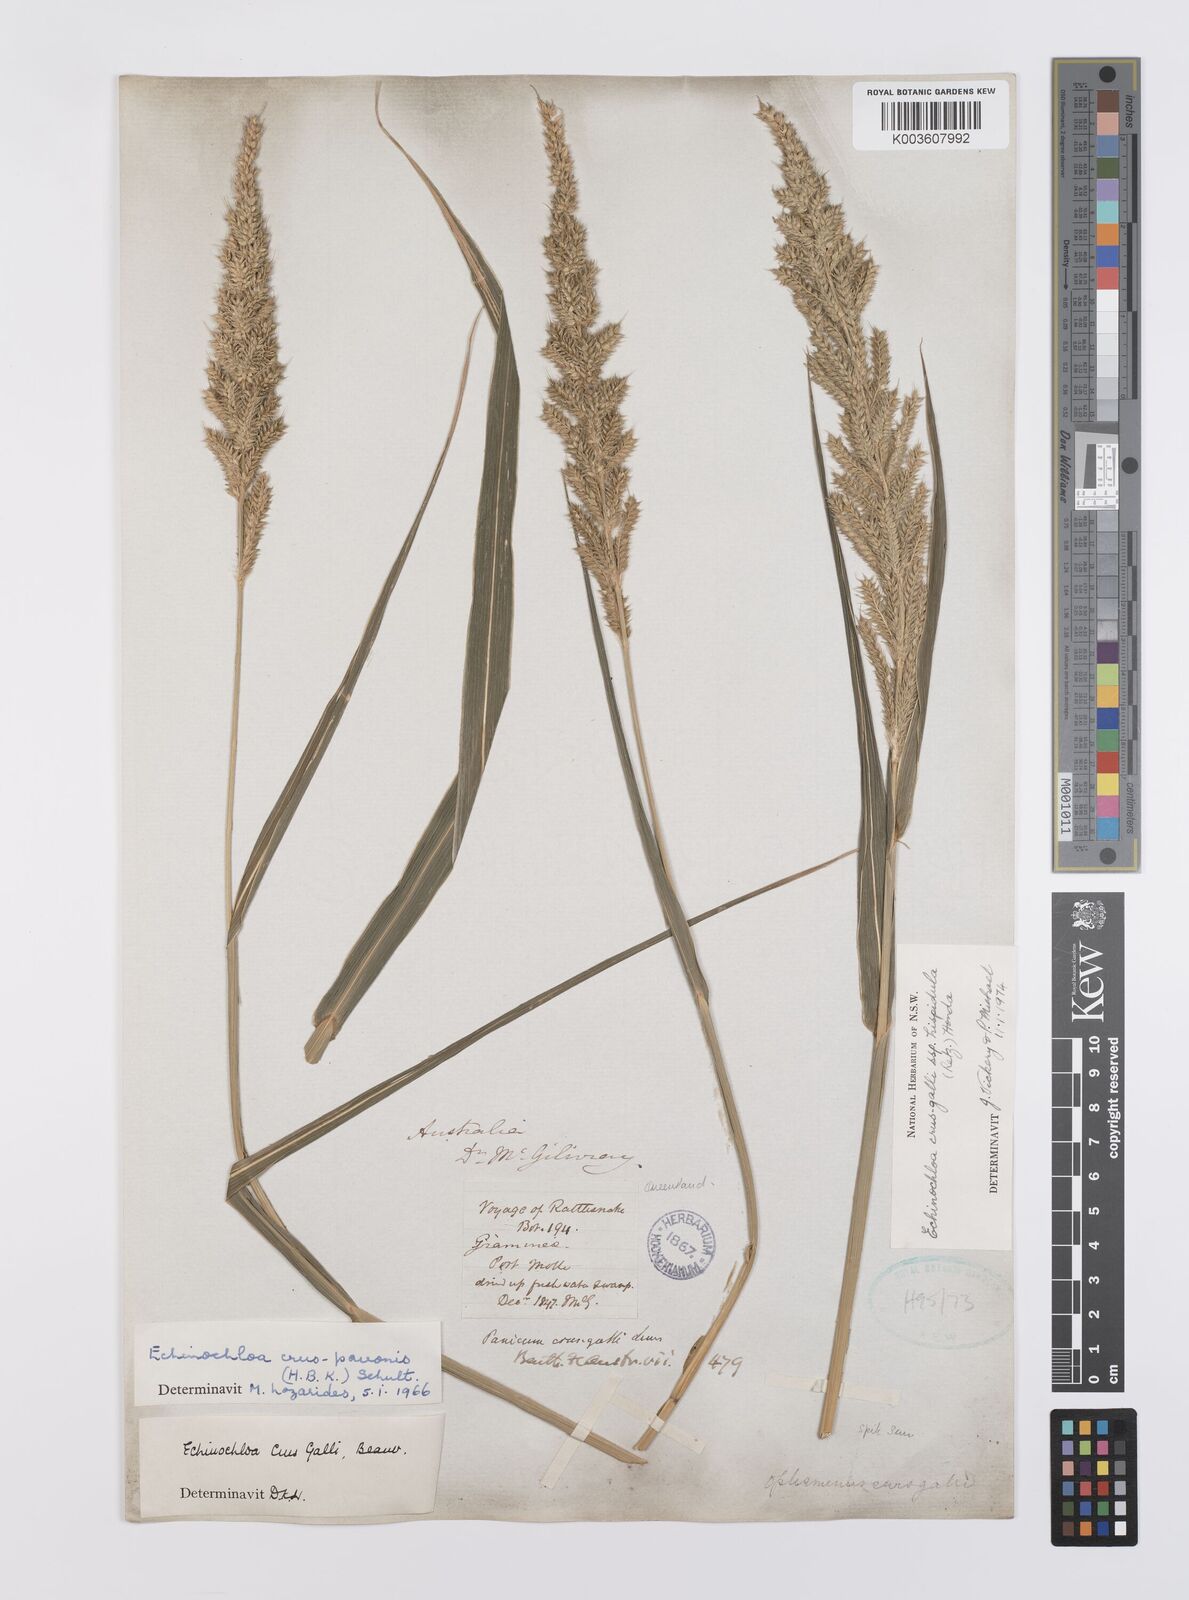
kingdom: Plantae
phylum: Tracheophyta
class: Liliopsida
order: Poales
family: Poaceae
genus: Echinochloa
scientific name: Echinochloa crus-galli
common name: Cockspur
